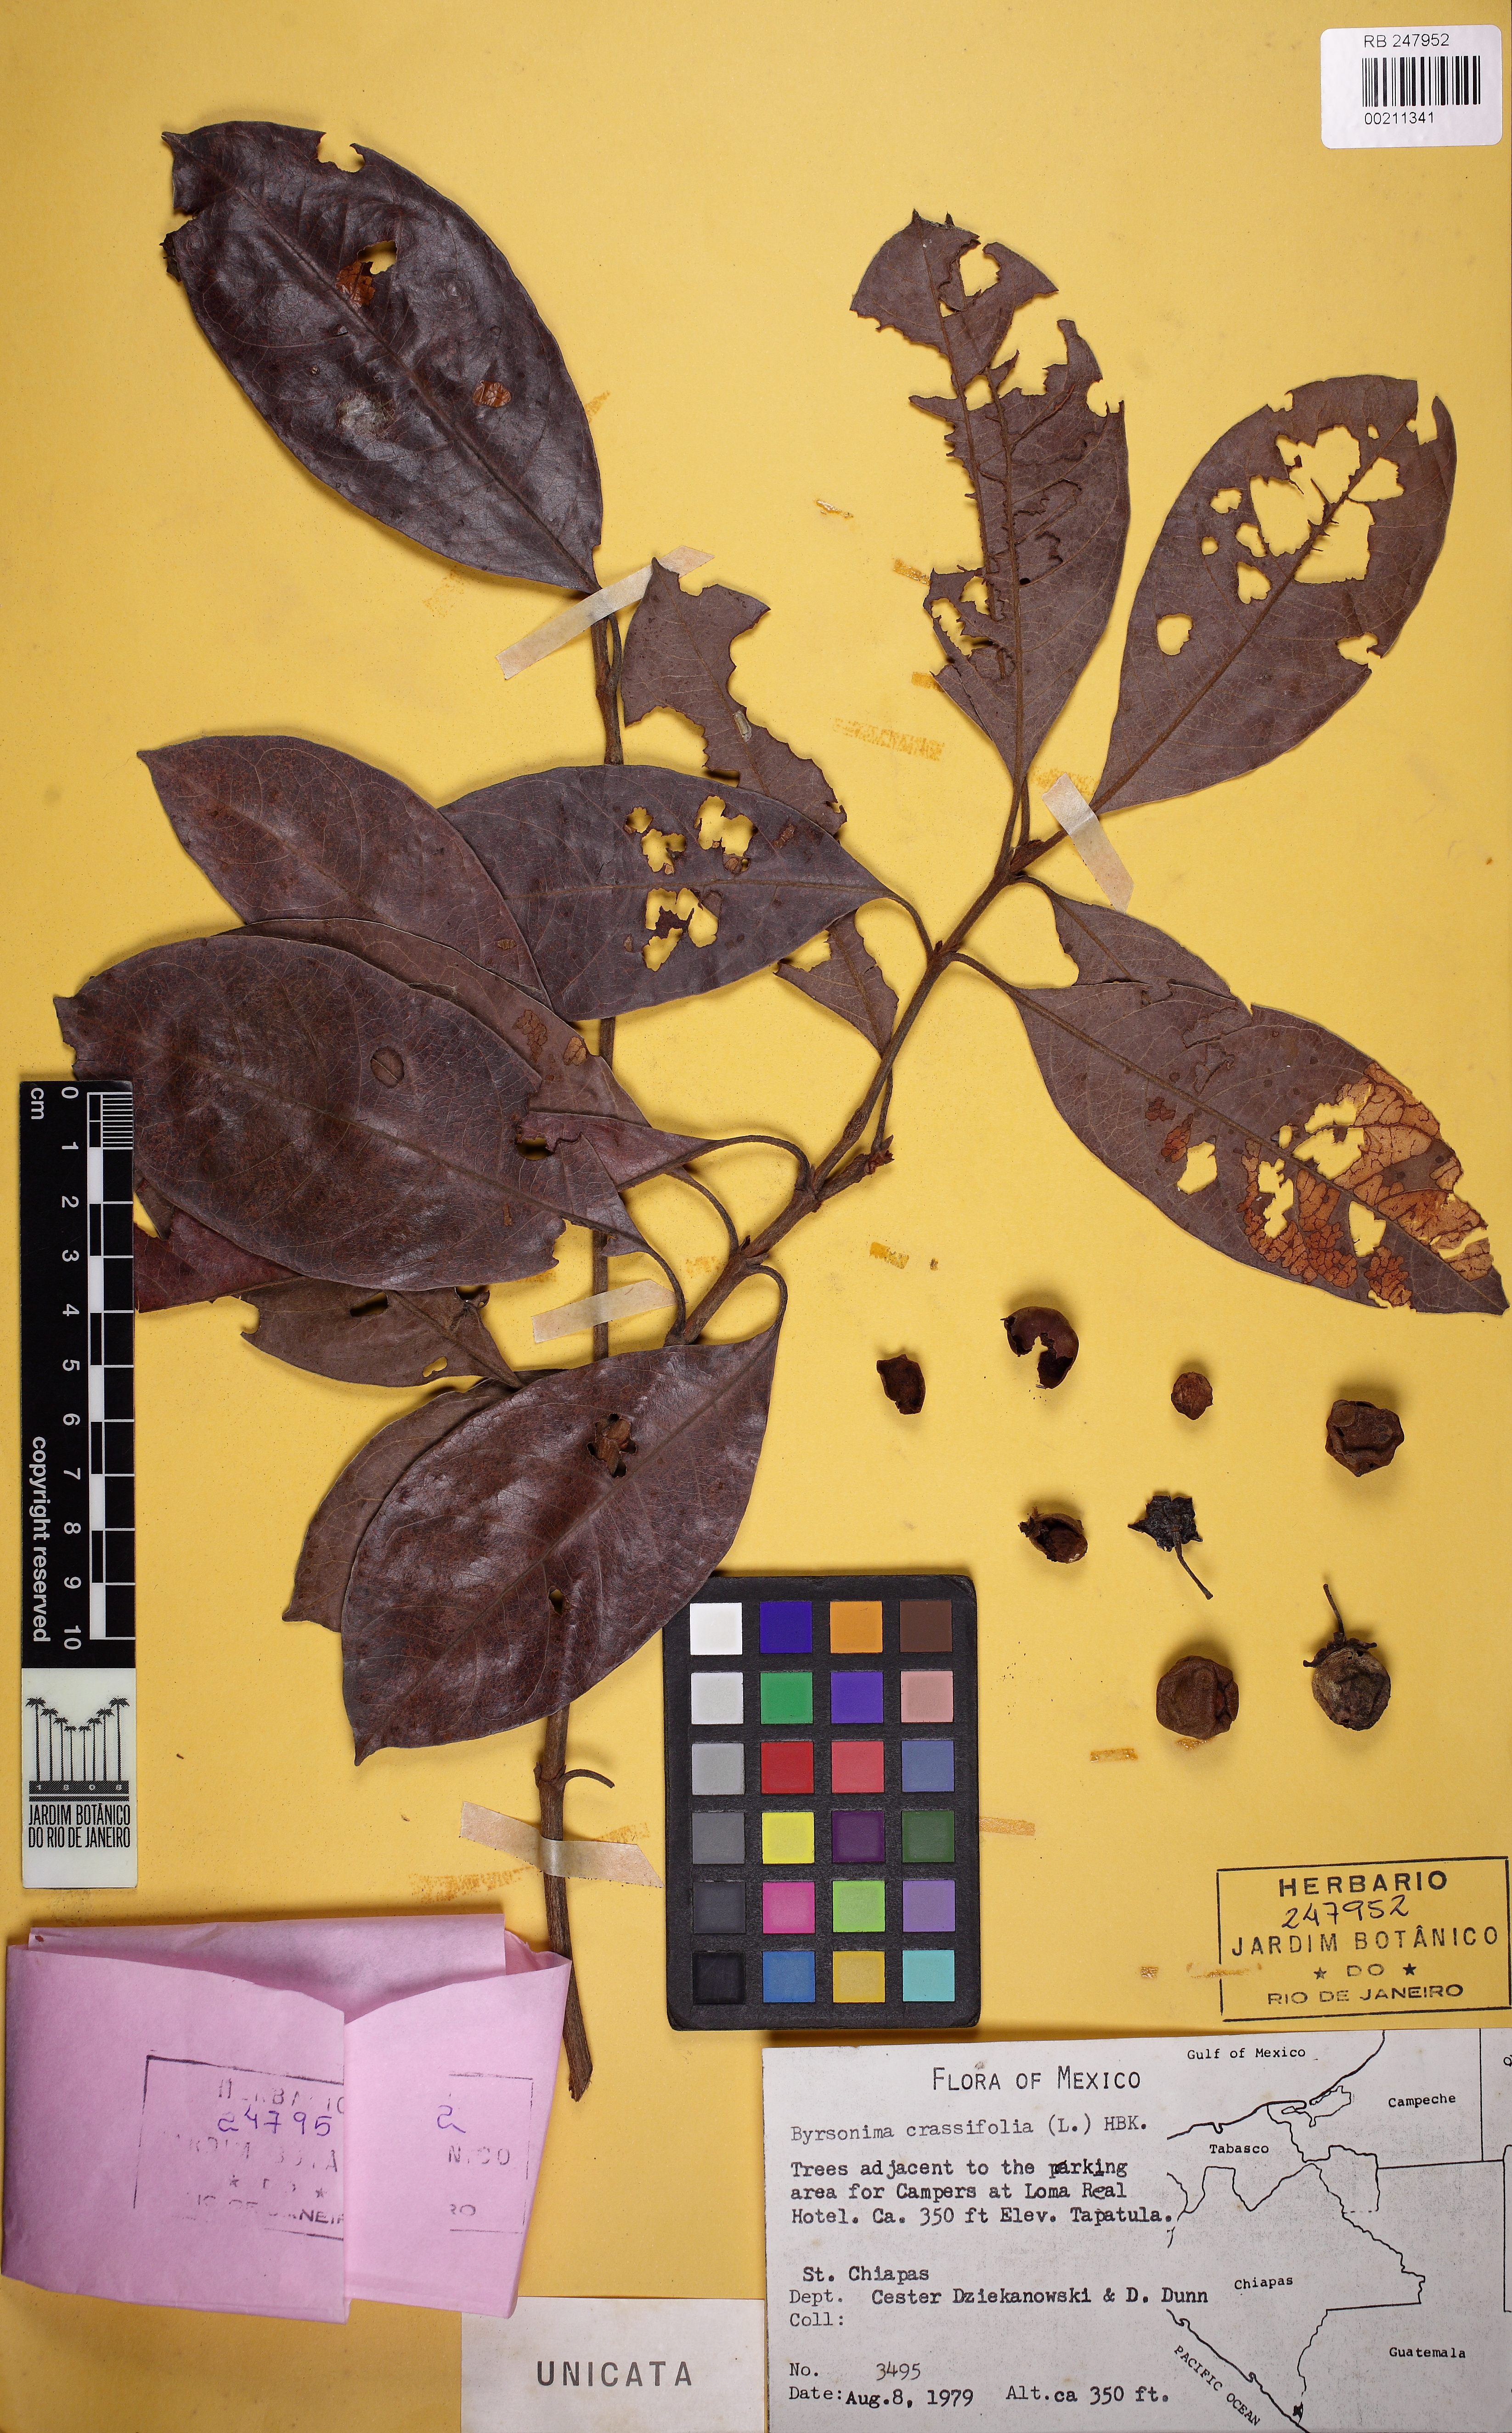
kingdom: Plantae
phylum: Tracheophyta
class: Magnoliopsida
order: Malpighiales
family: Malpighiaceae
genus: Byrsonima
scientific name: Byrsonima crassifolia
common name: Golden spoon
